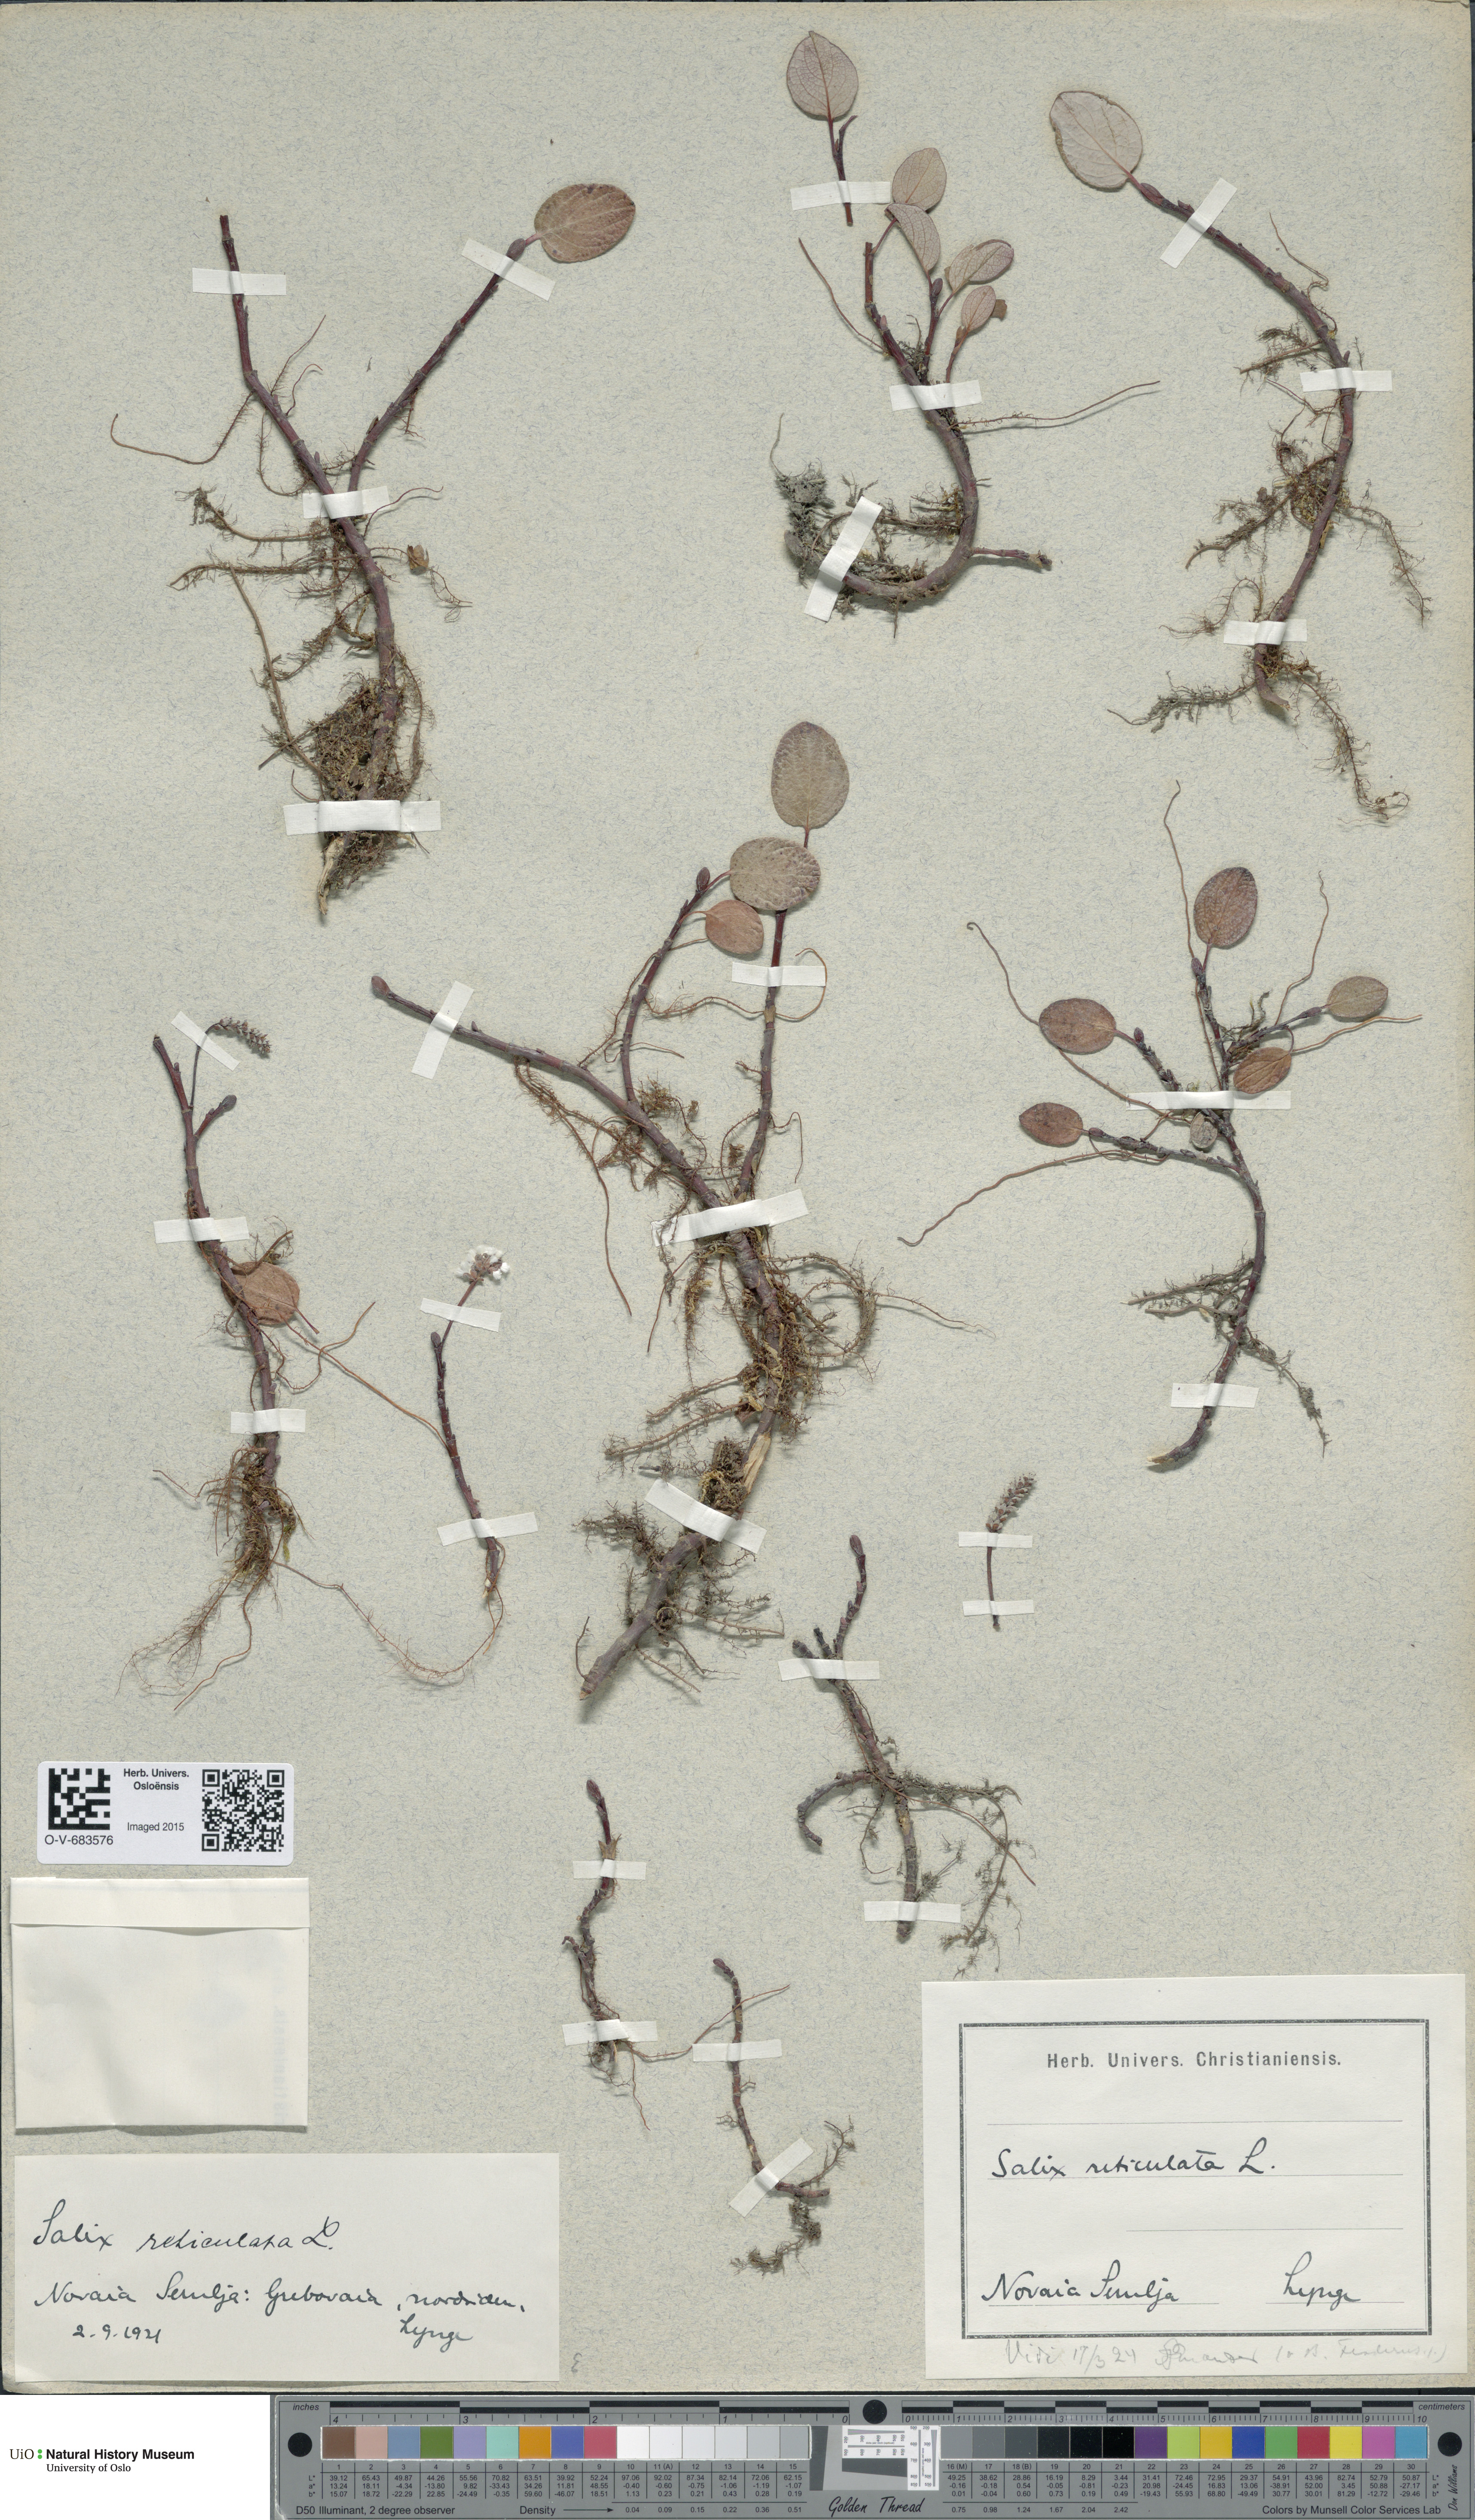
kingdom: Plantae
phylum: Tracheophyta
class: Magnoliopsida
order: Malpighiales
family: Salicaceae
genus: Salix
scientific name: Salix reticulata
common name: Net-leaved willow
